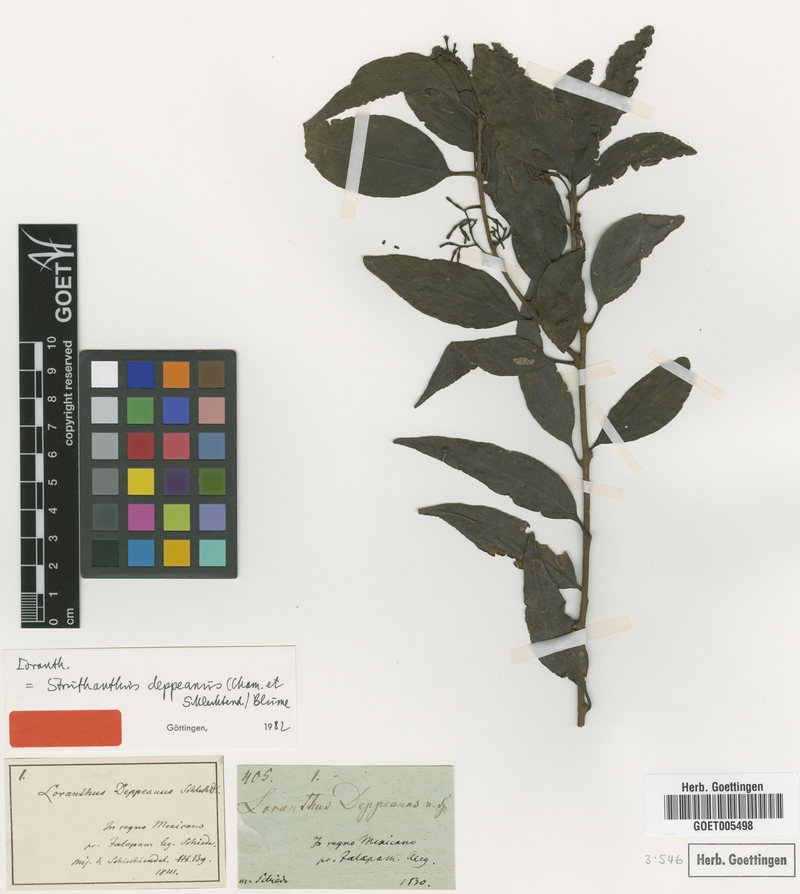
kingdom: Plantae
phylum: Tracheophyta
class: Magnoliopsida
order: Santalales
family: Loranthaceae
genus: Struthanthus
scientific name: Struthanthus deppeanus
